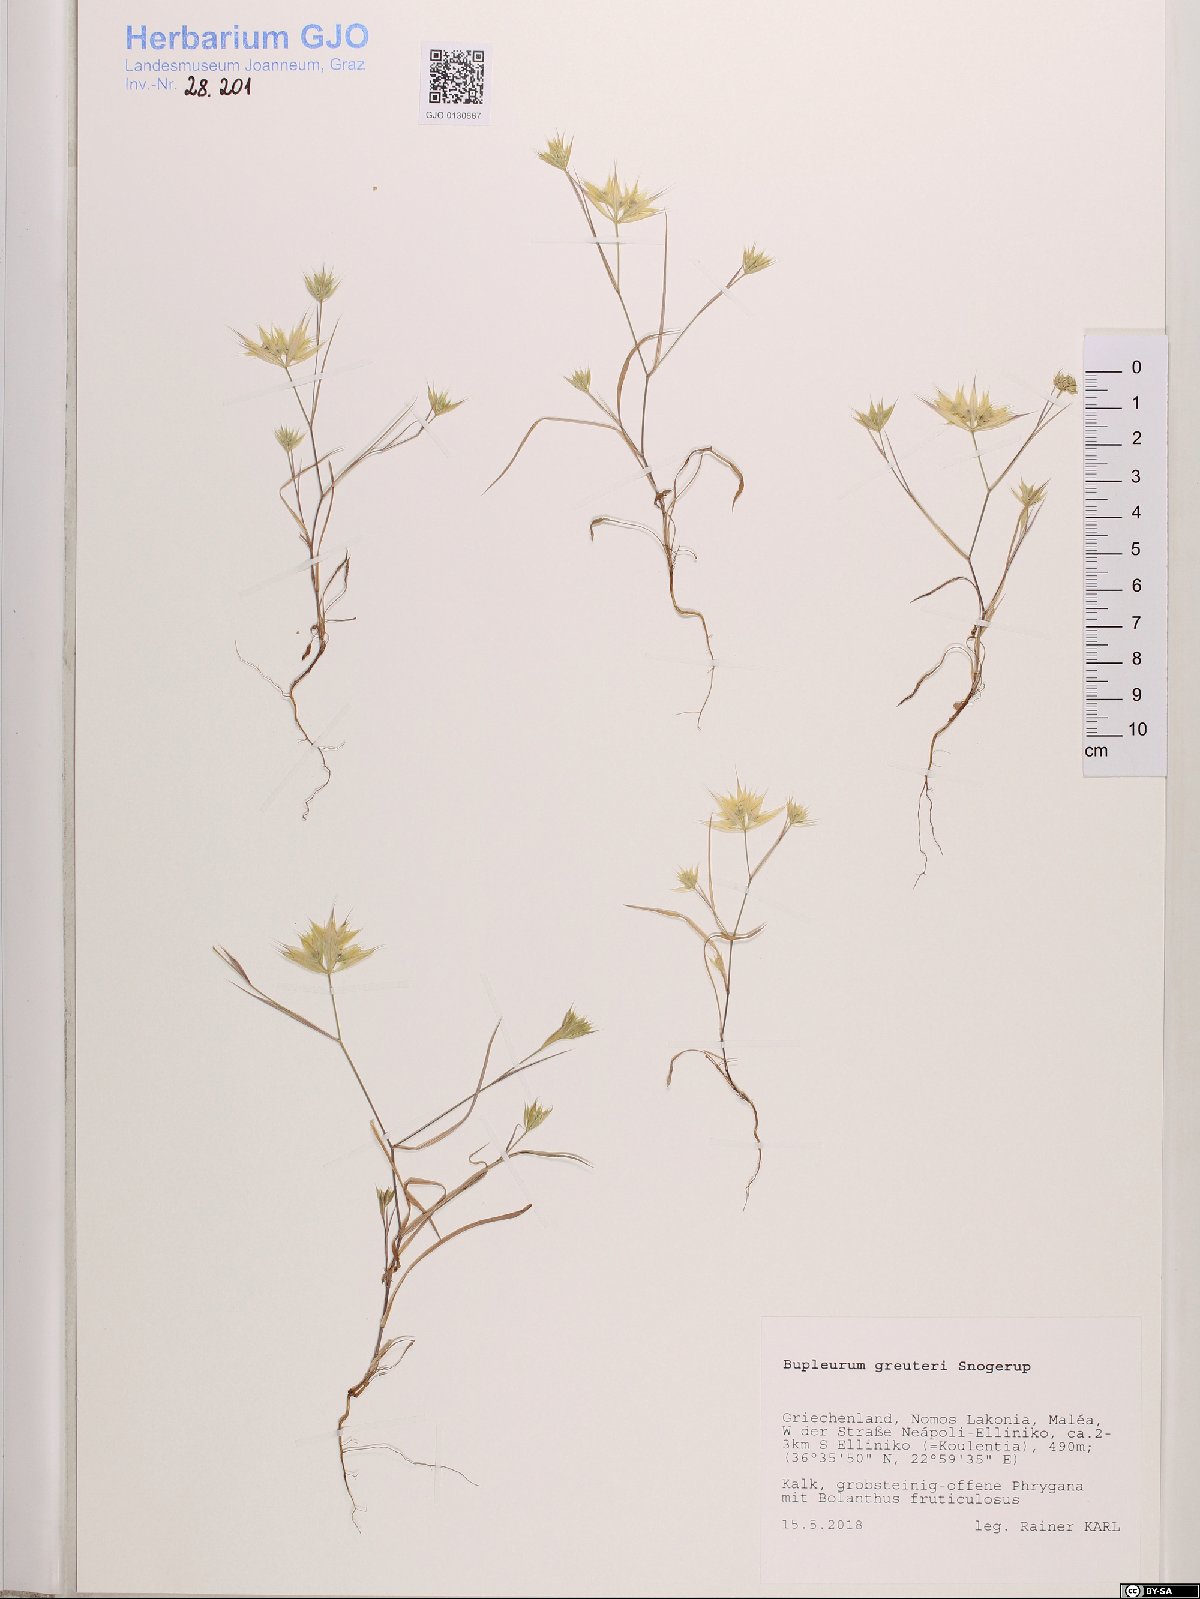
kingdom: Plantae
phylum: Tracheophyta
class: Magnoliopsida
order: Apiales
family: Apiaceae
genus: Bupleurum
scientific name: Bupleurum greuteri
